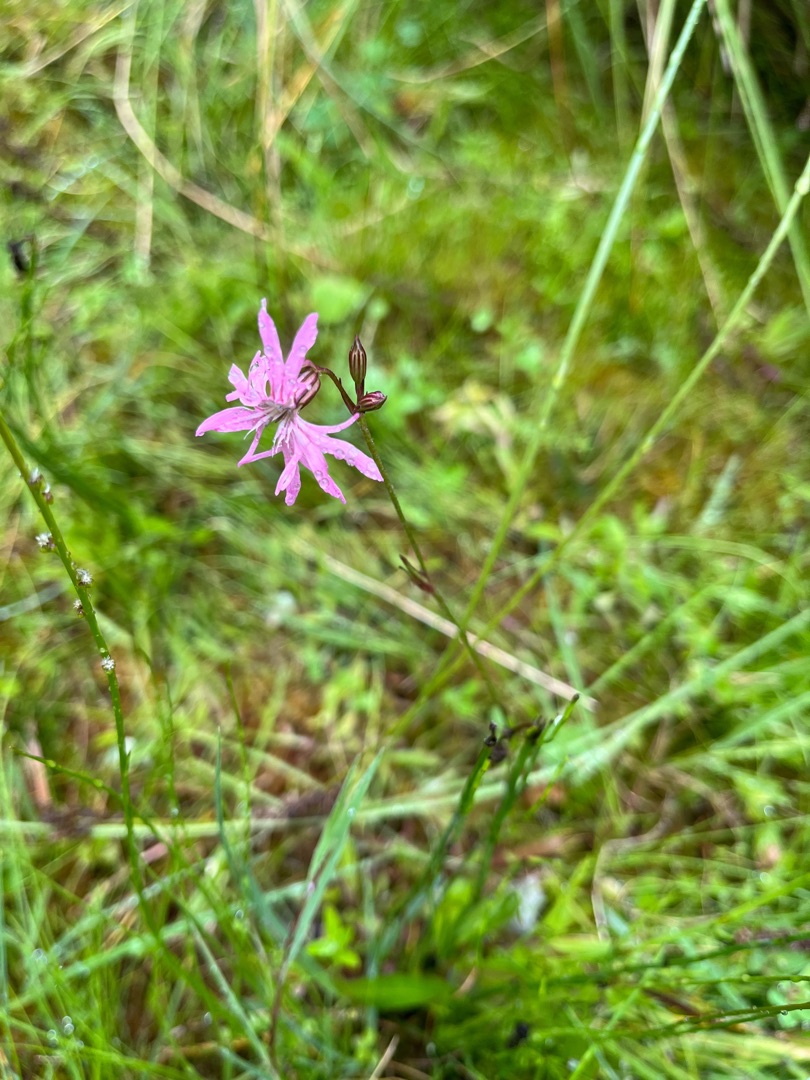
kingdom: Plantae
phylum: Tracheophyta
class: Magnoliopsida
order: Caryophyllales
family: Caryophyllaceae
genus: Silene
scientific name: Silene flos-cuculi
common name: Trævlekrone
